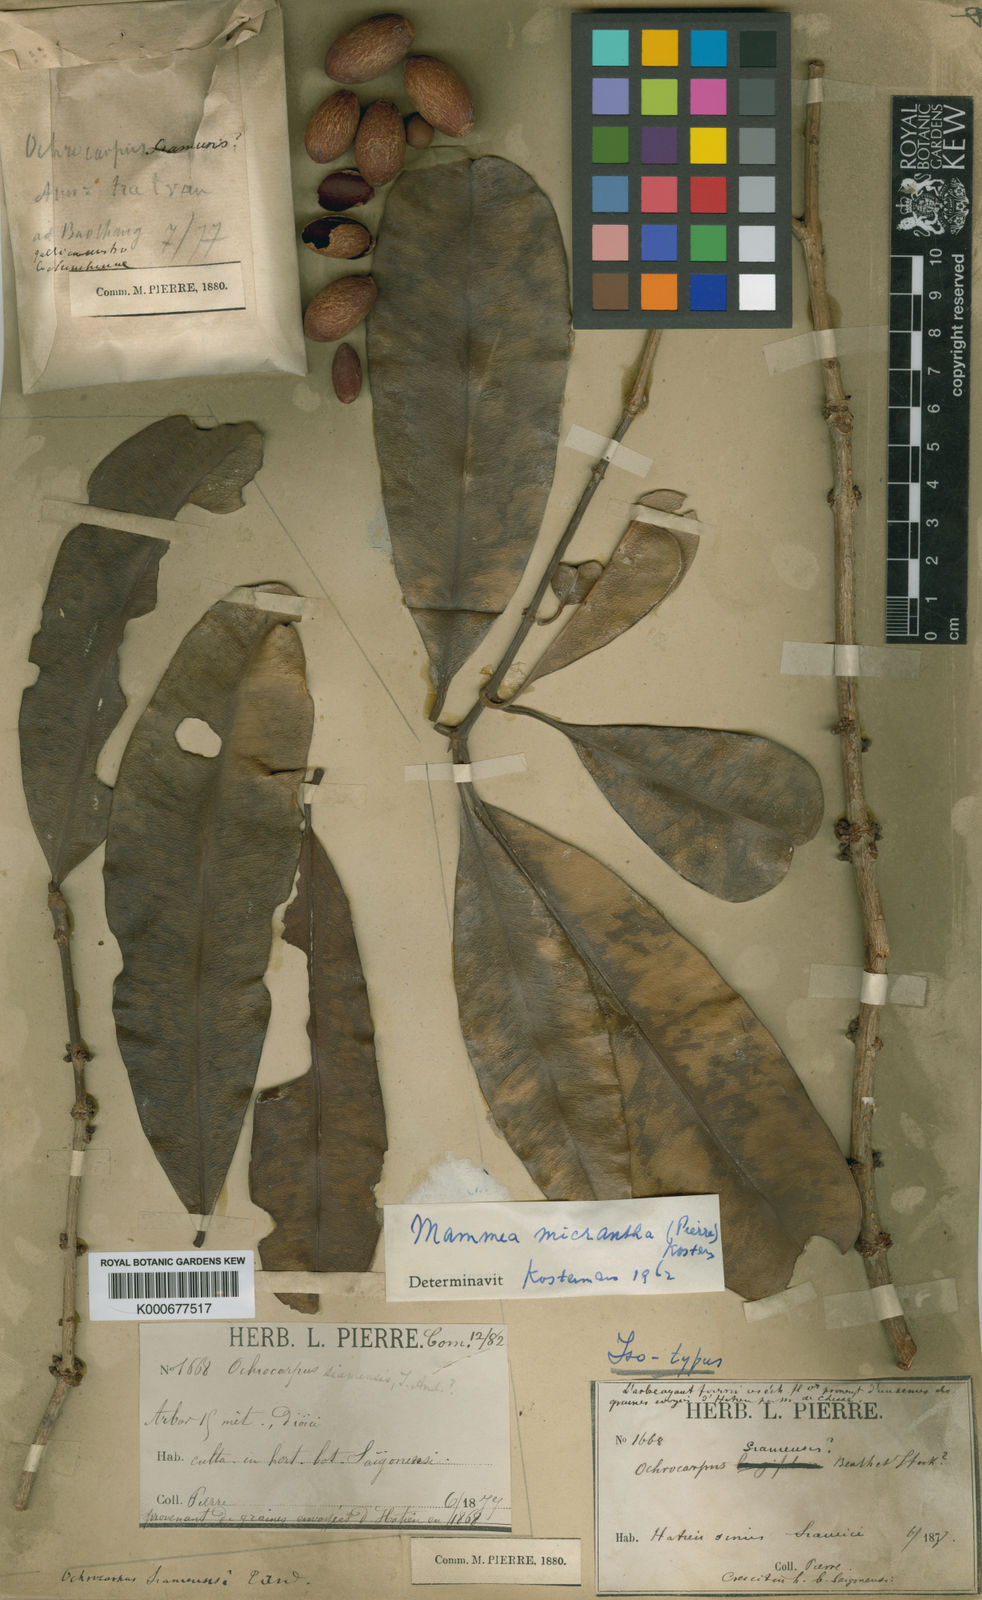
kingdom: Plantae
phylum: Tracheophyta
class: Magnoliopsida
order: Malpighiales
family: Calophyllaceae
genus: Mammea
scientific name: Mammea micrantha
